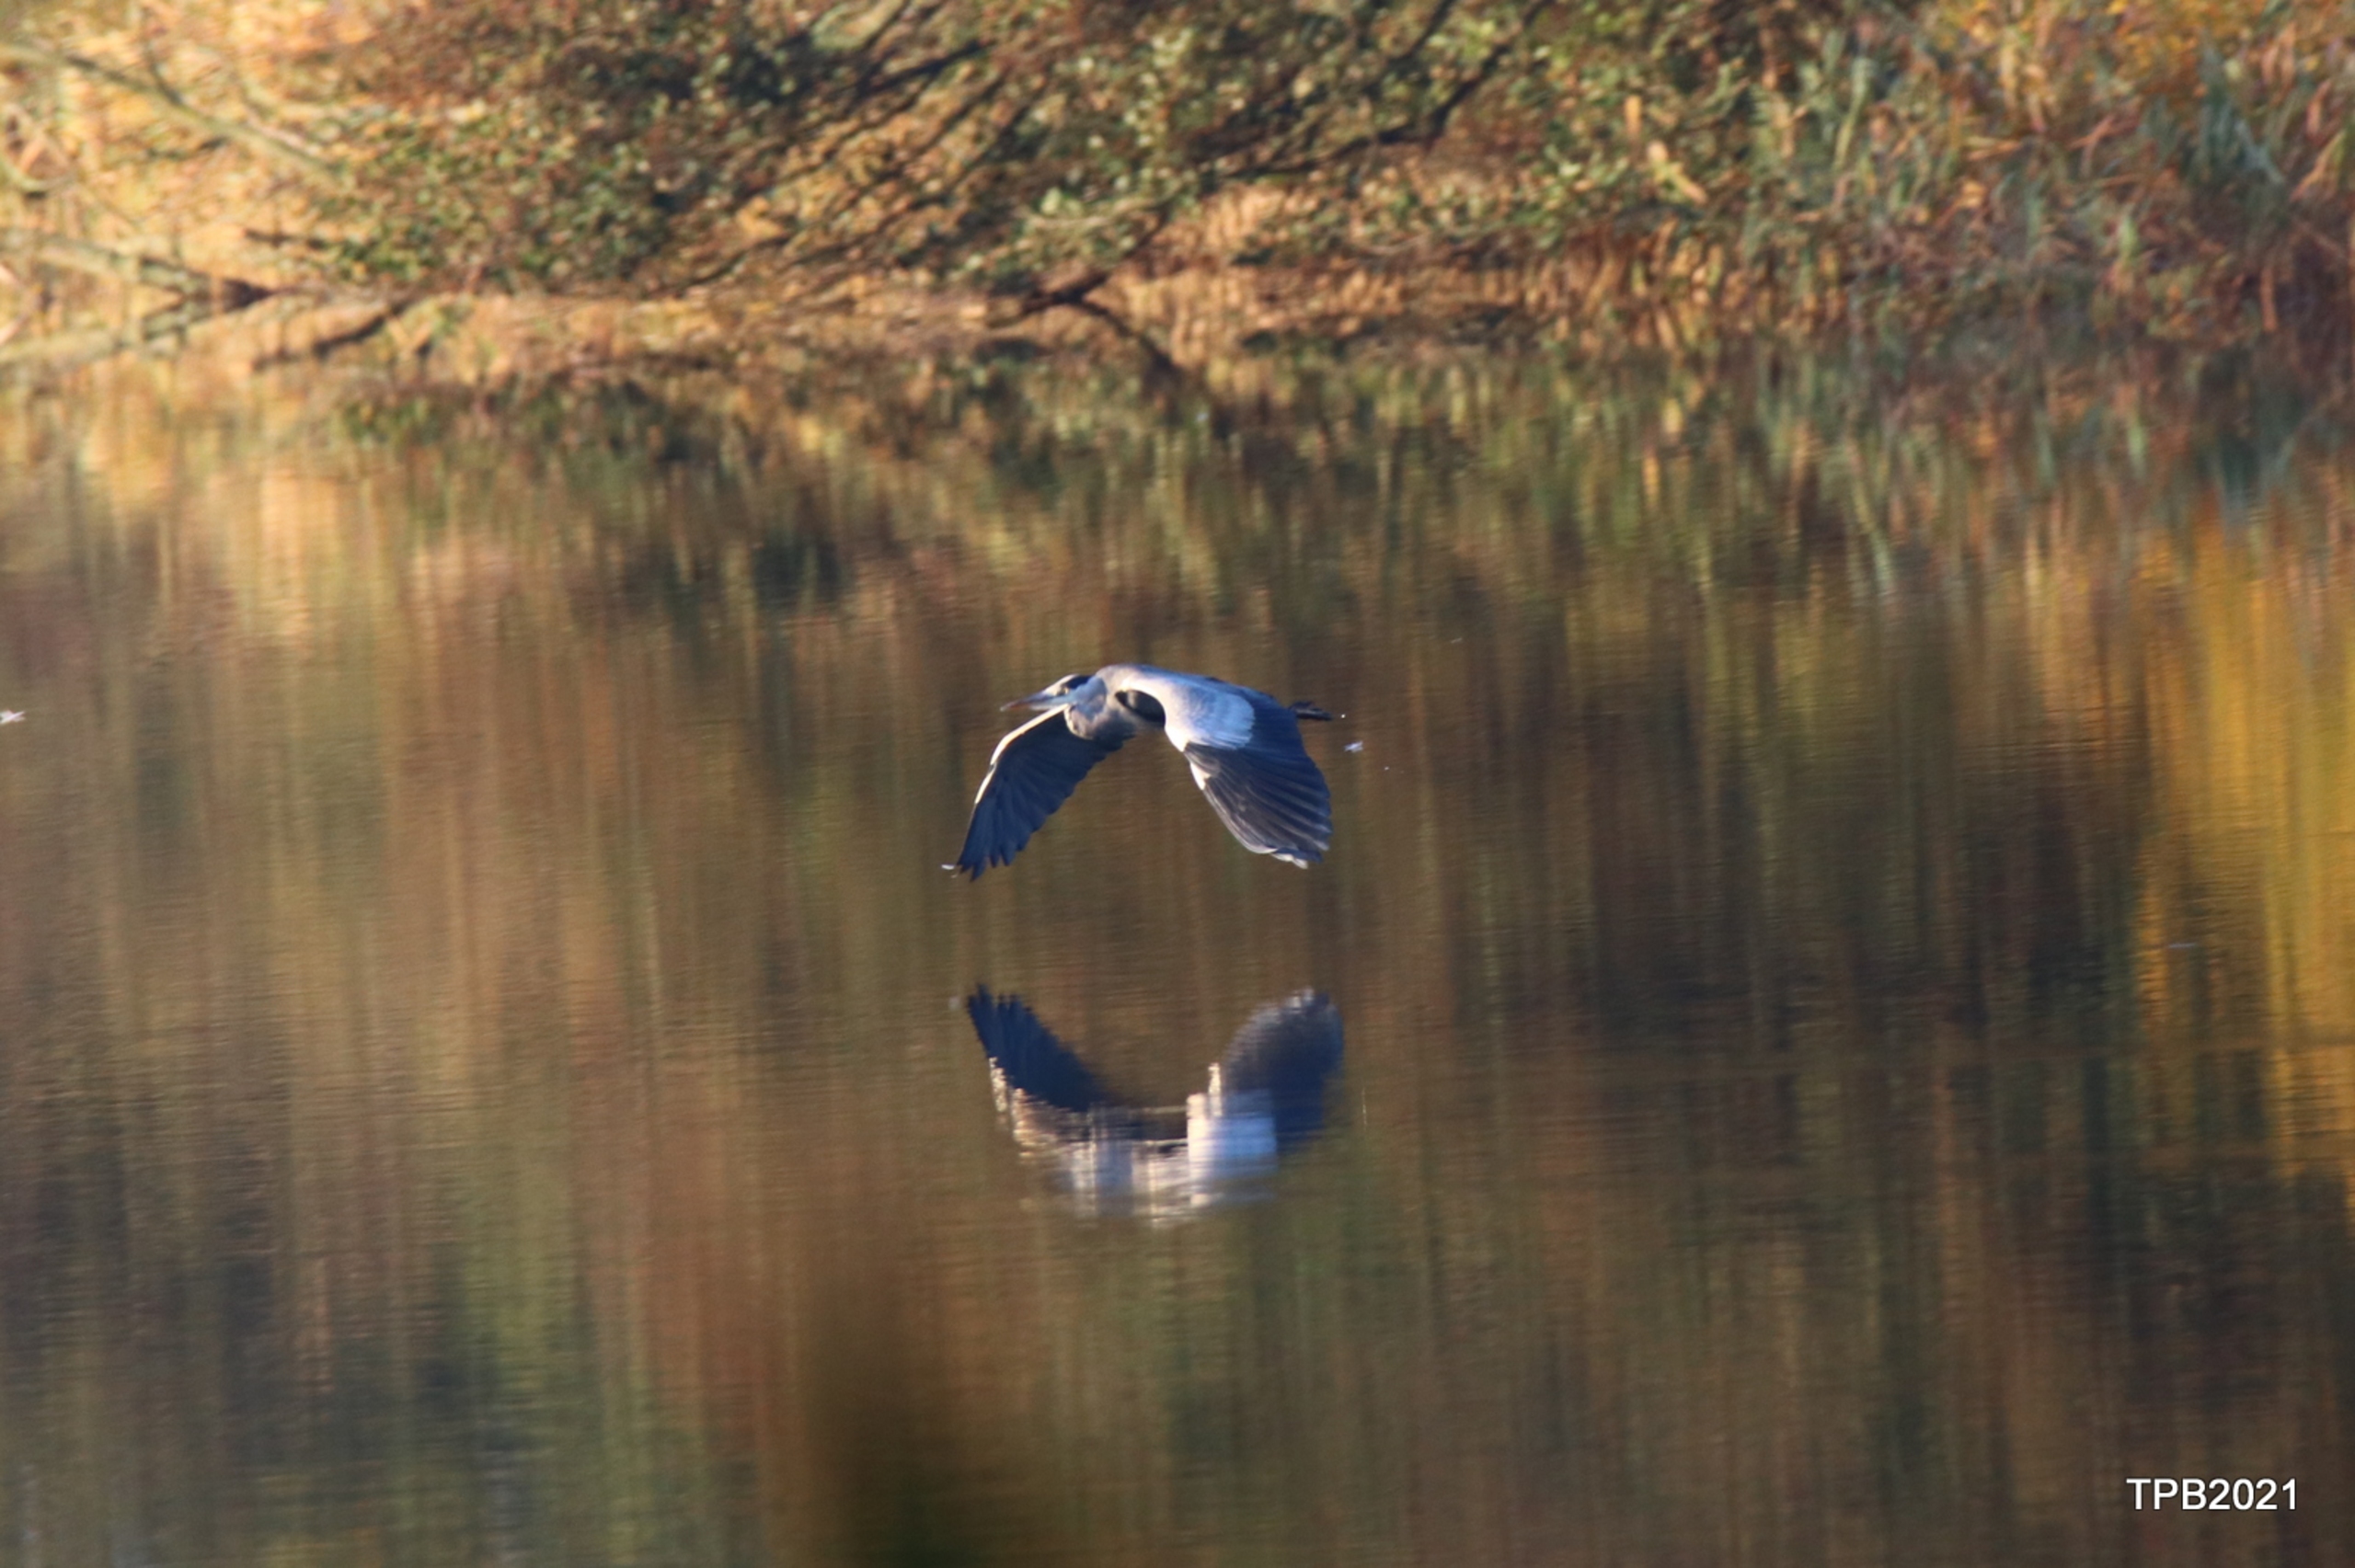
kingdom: Animalia
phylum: Chordata
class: Aves
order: Pelecaniformes
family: Ardeidae
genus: Ardea
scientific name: Ardea cinerea
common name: Fiskehejre
